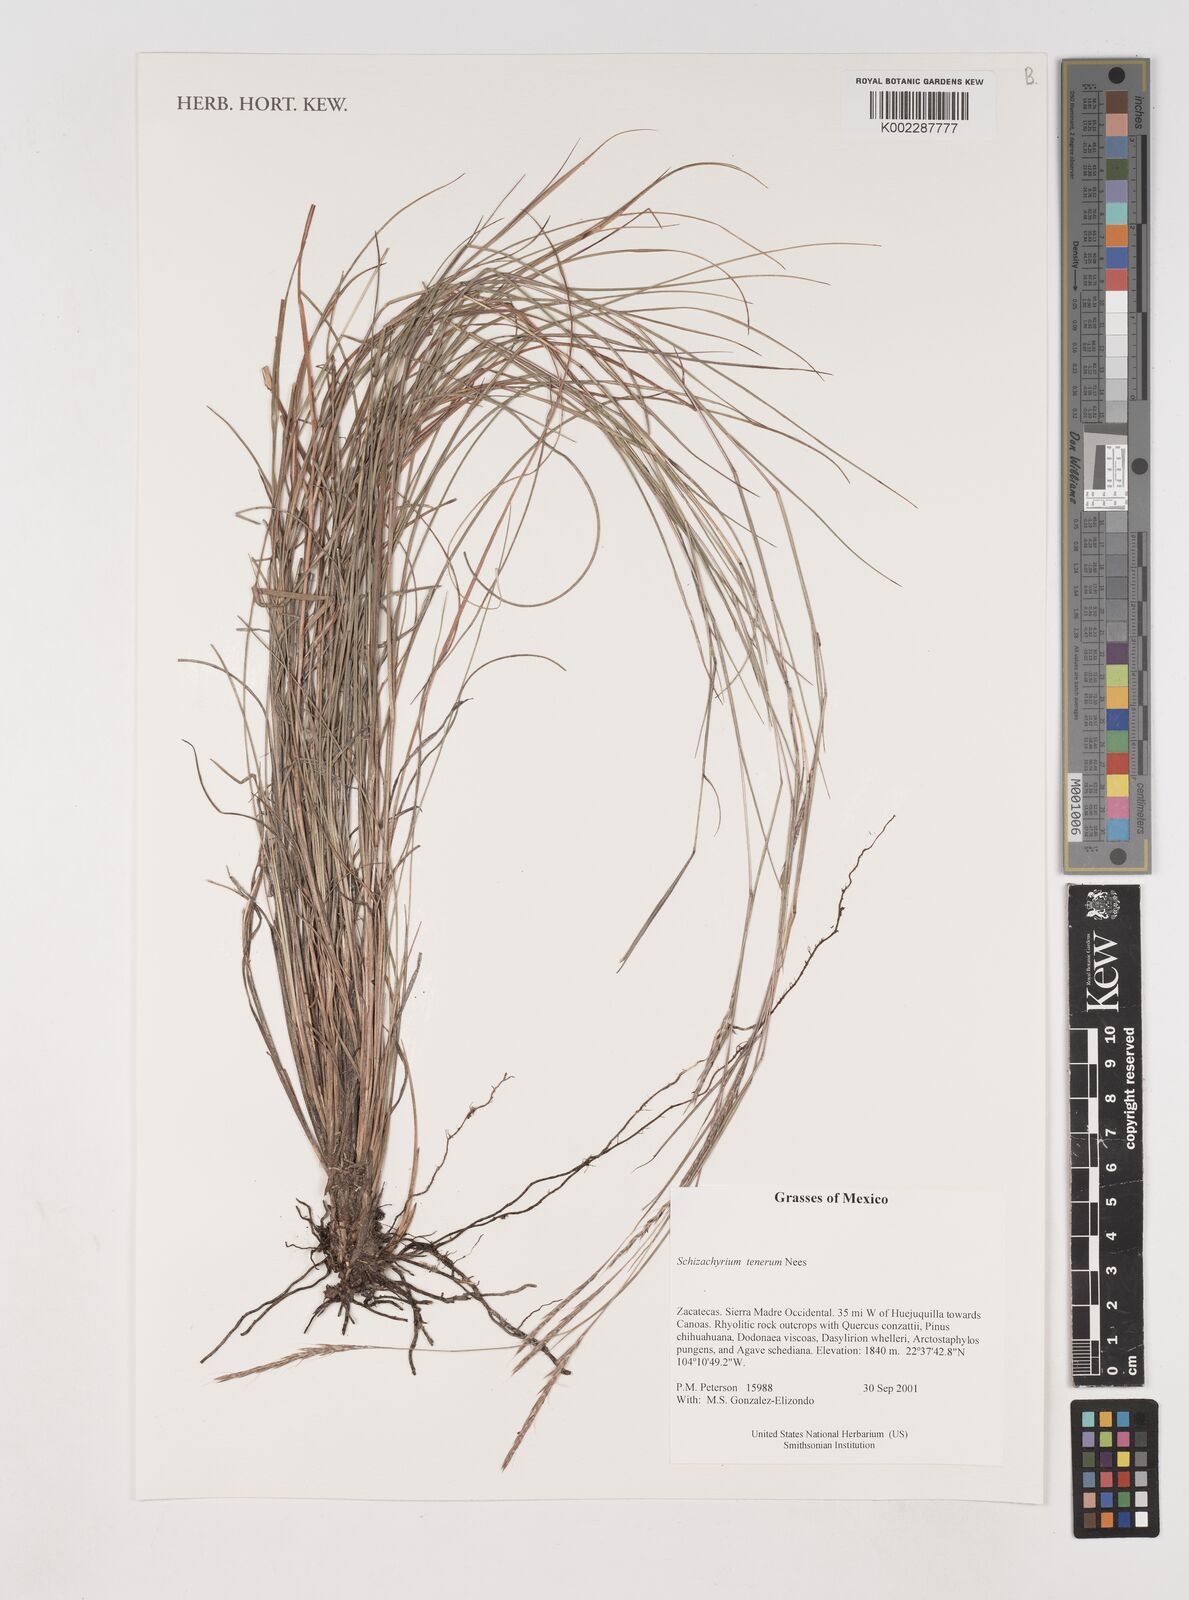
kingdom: Plantae
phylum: Tracheophyta
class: Liliopsida
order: Poales
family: Poaceae
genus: Andropogon
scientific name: Andropogon tener
